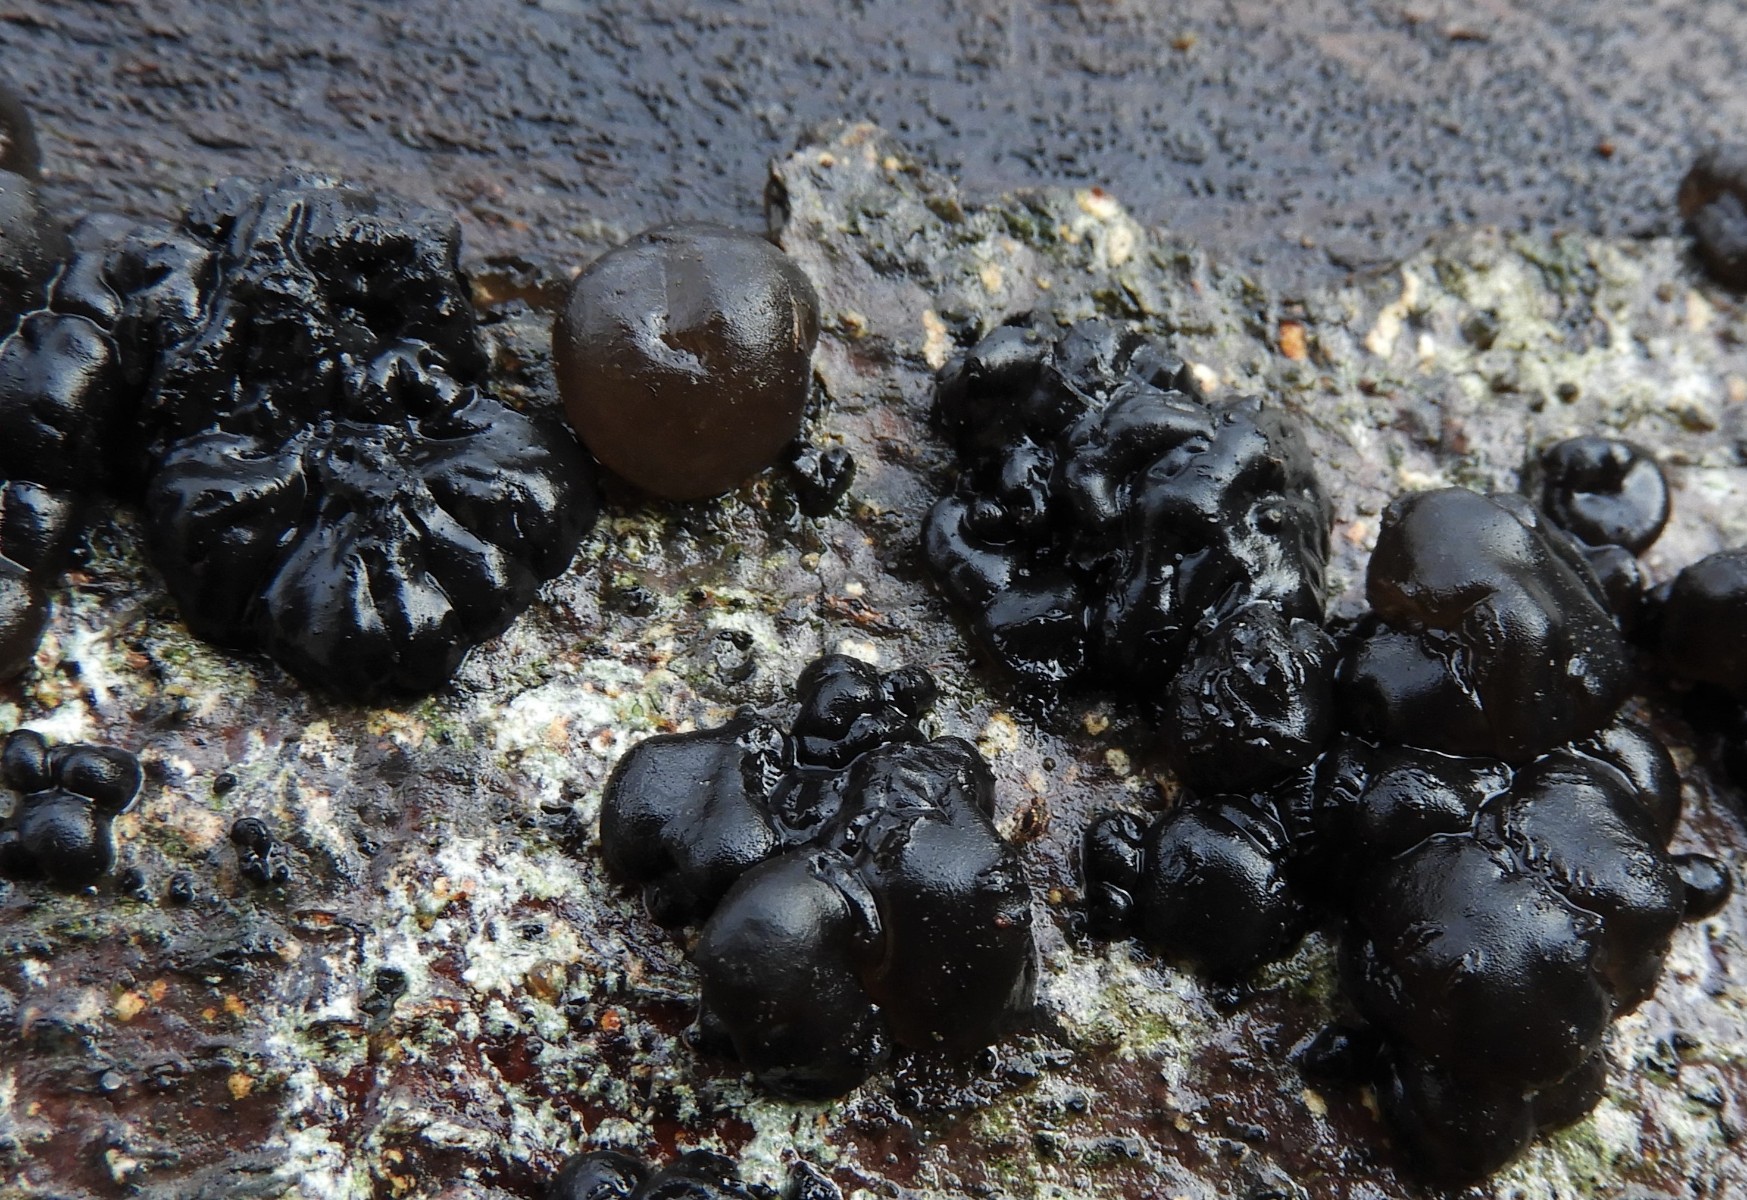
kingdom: Fungi
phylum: Basidiomycota
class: Agaricomycetes
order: Auriculariales
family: Auriculariaceae
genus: Exidia
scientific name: Exidia pithya
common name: gran-bævretop
